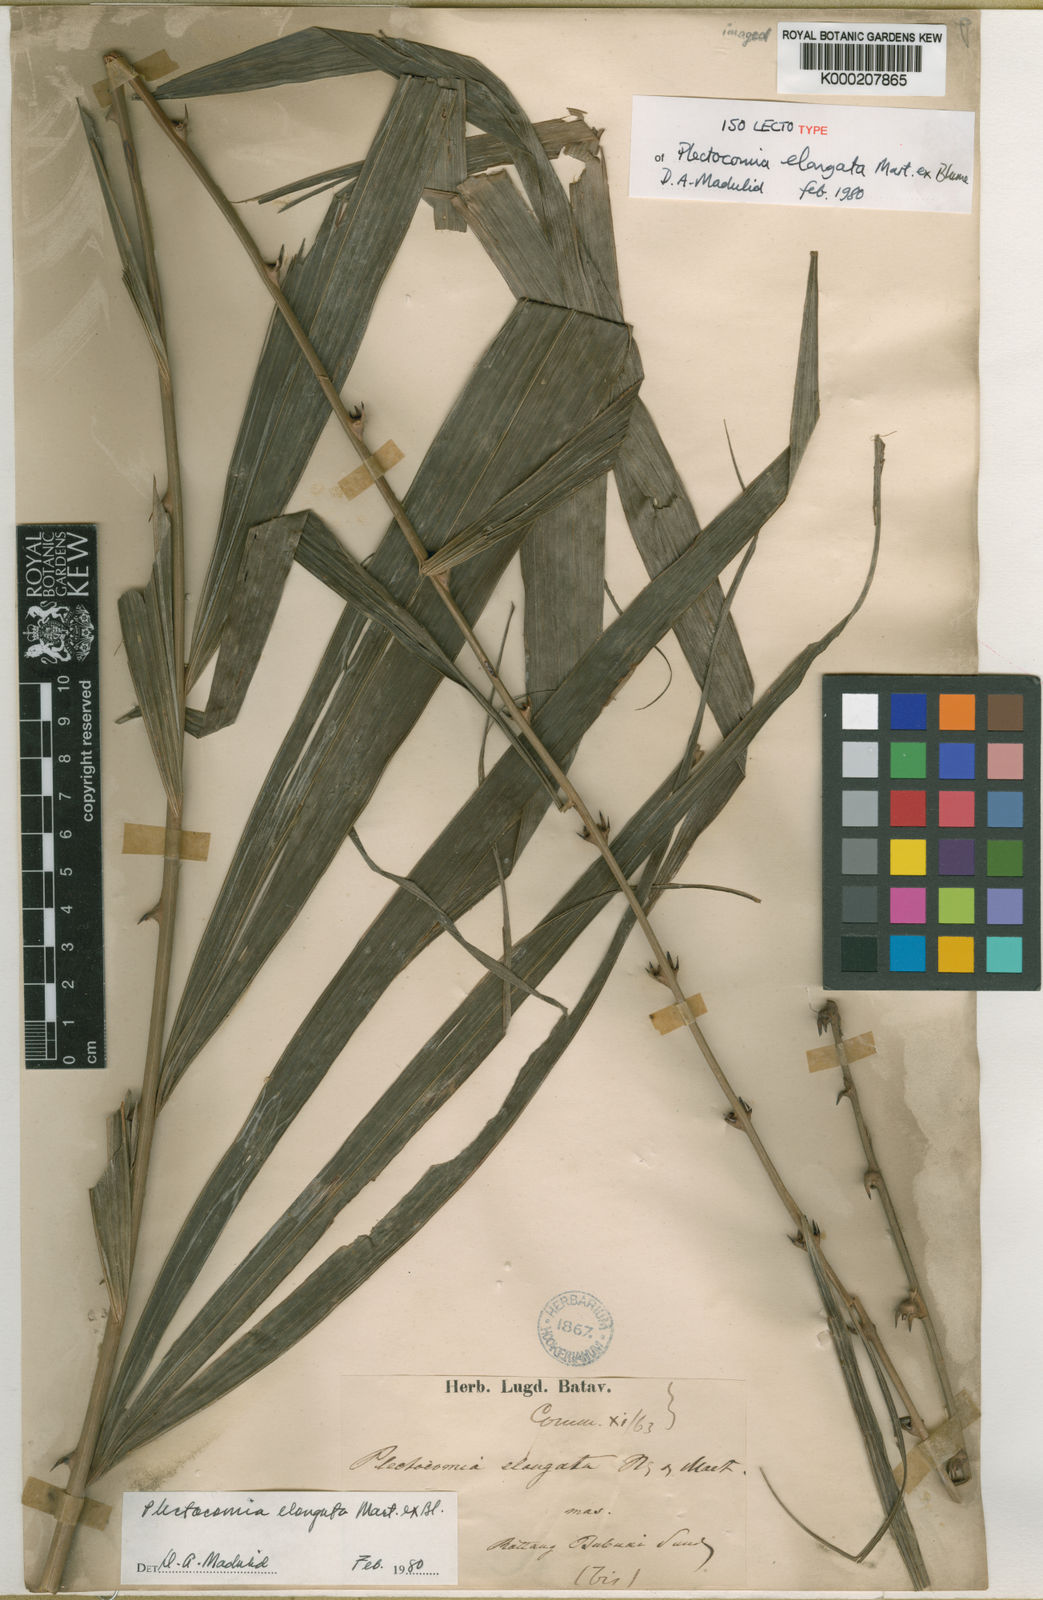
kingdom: Plantae
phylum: Tracheophyta
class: Liliopsida
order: Arecales
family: Arecaceae
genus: Plectocomia
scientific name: Plectocomia elongata
